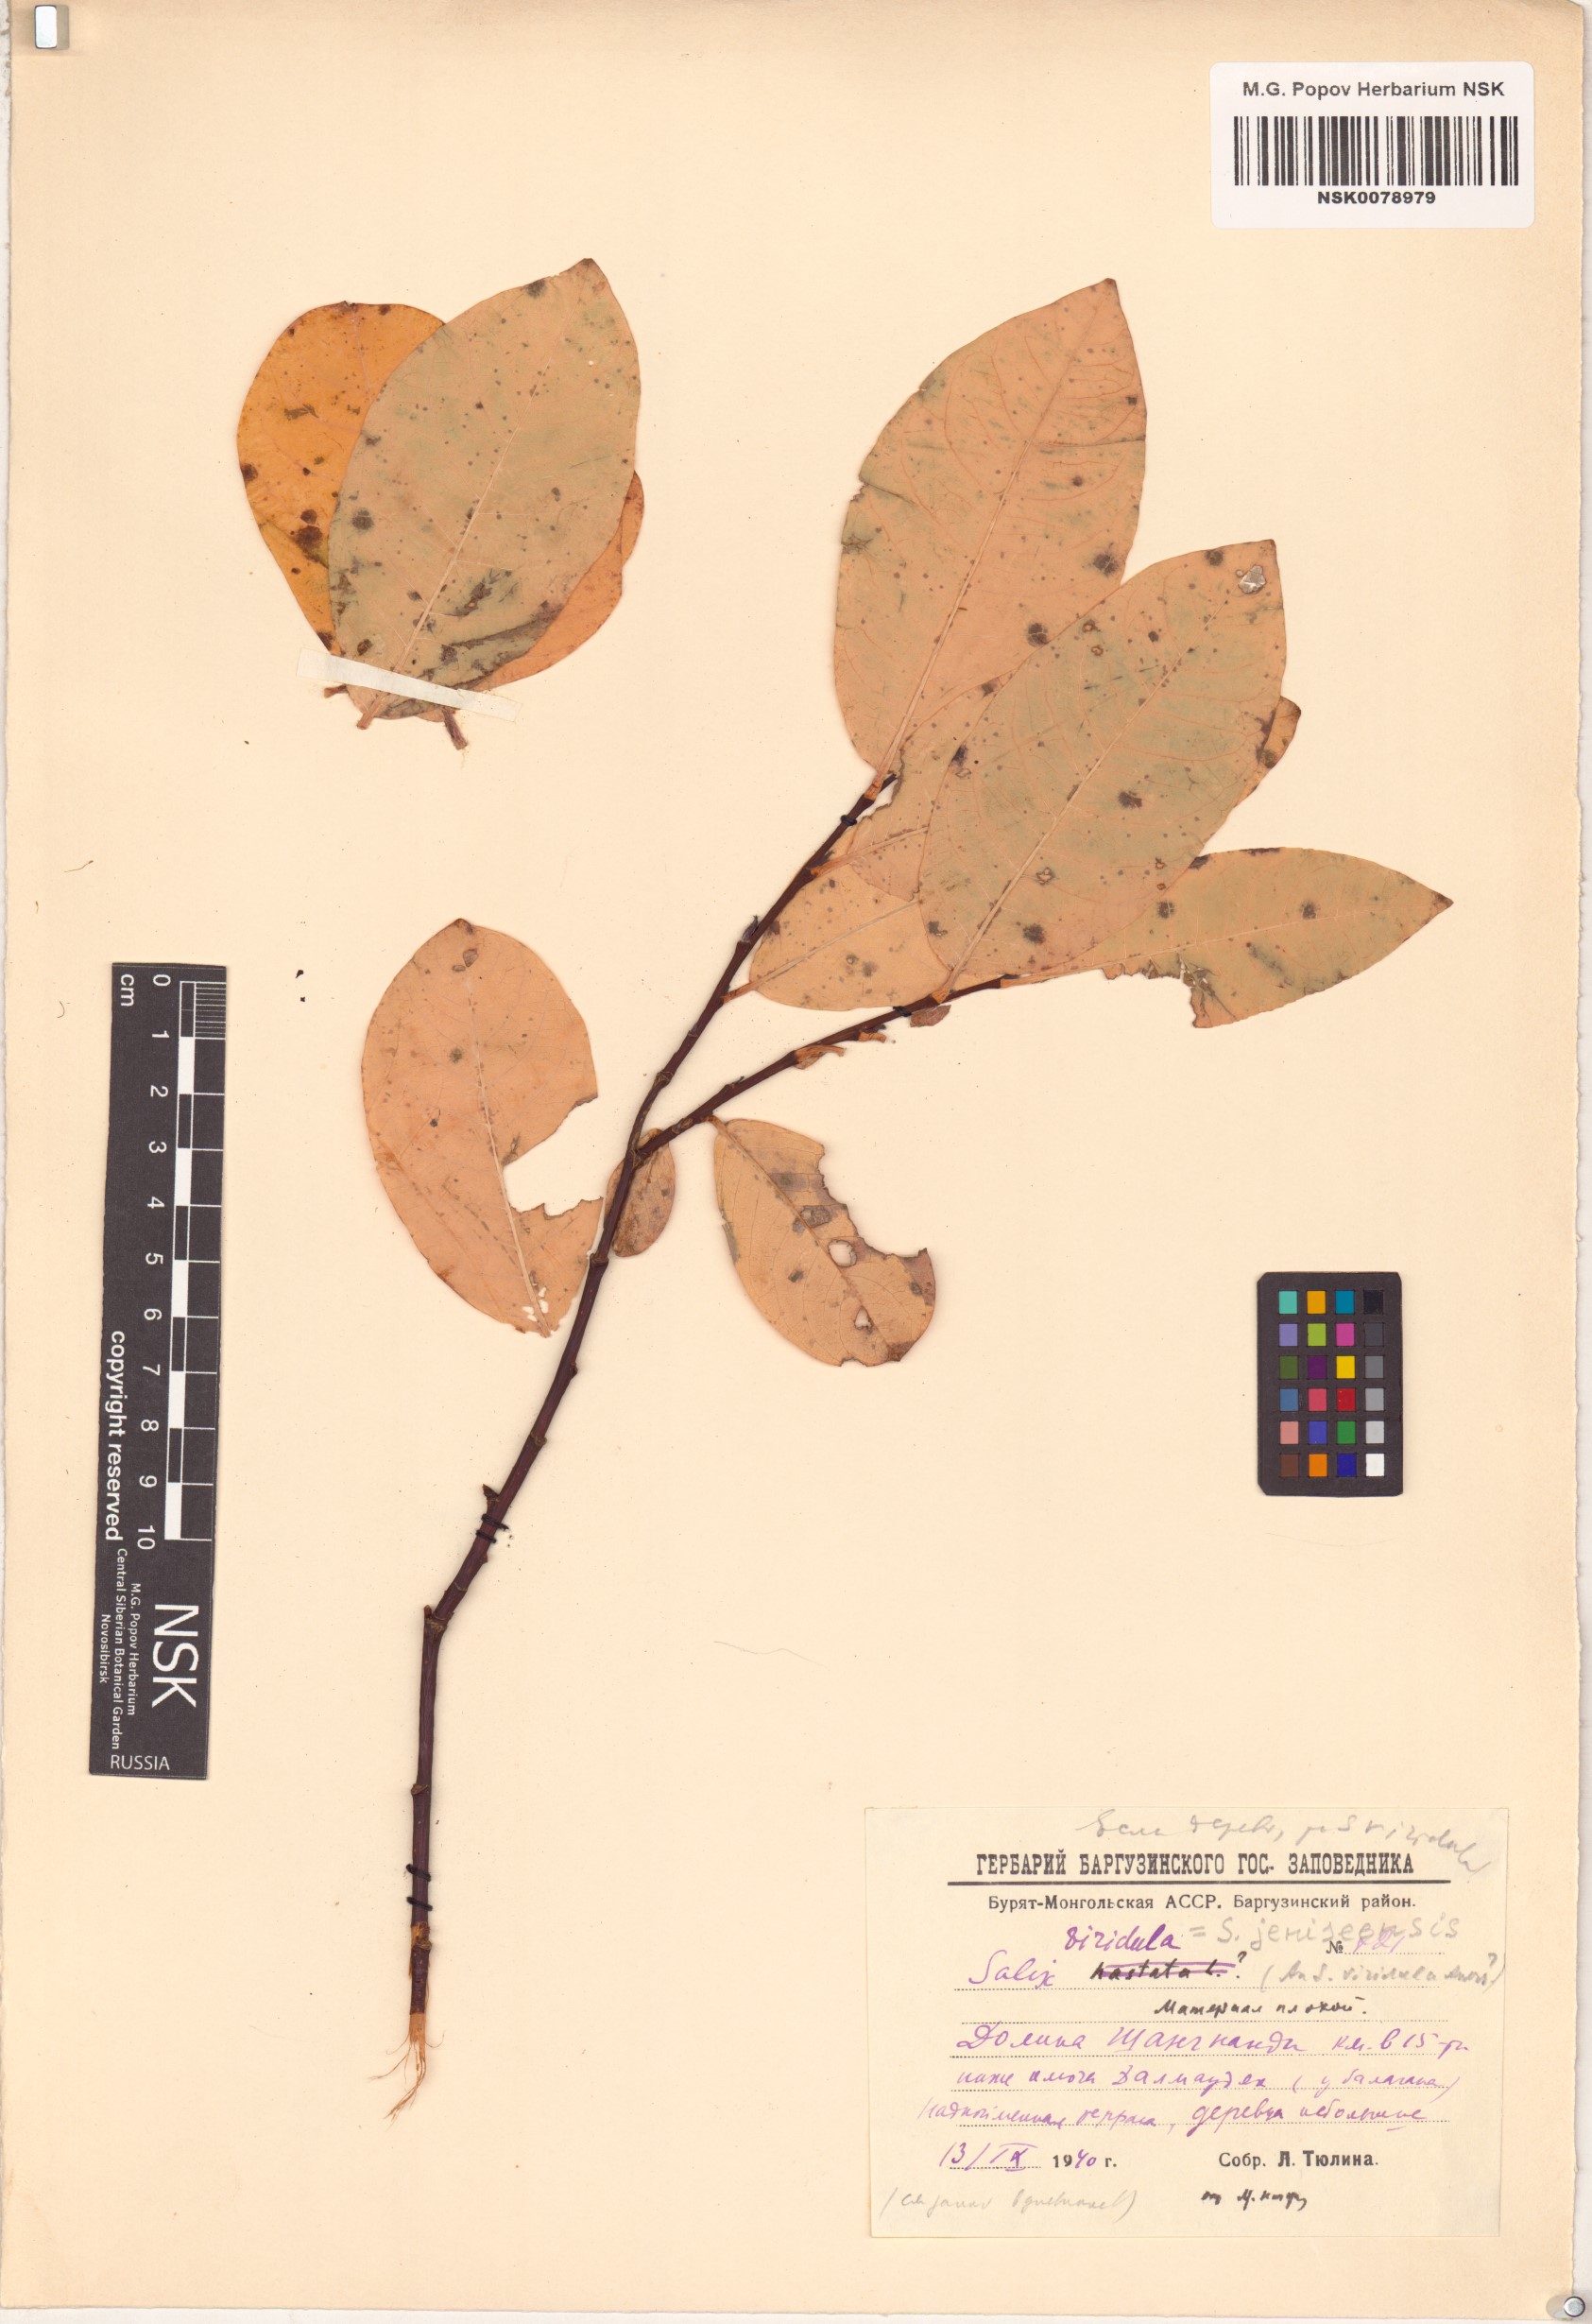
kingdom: Plantae
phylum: Tracheophyta
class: Magnoliopsida
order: Malpighiales
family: Salicaceae
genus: Salix
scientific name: Salix jenisseensis
